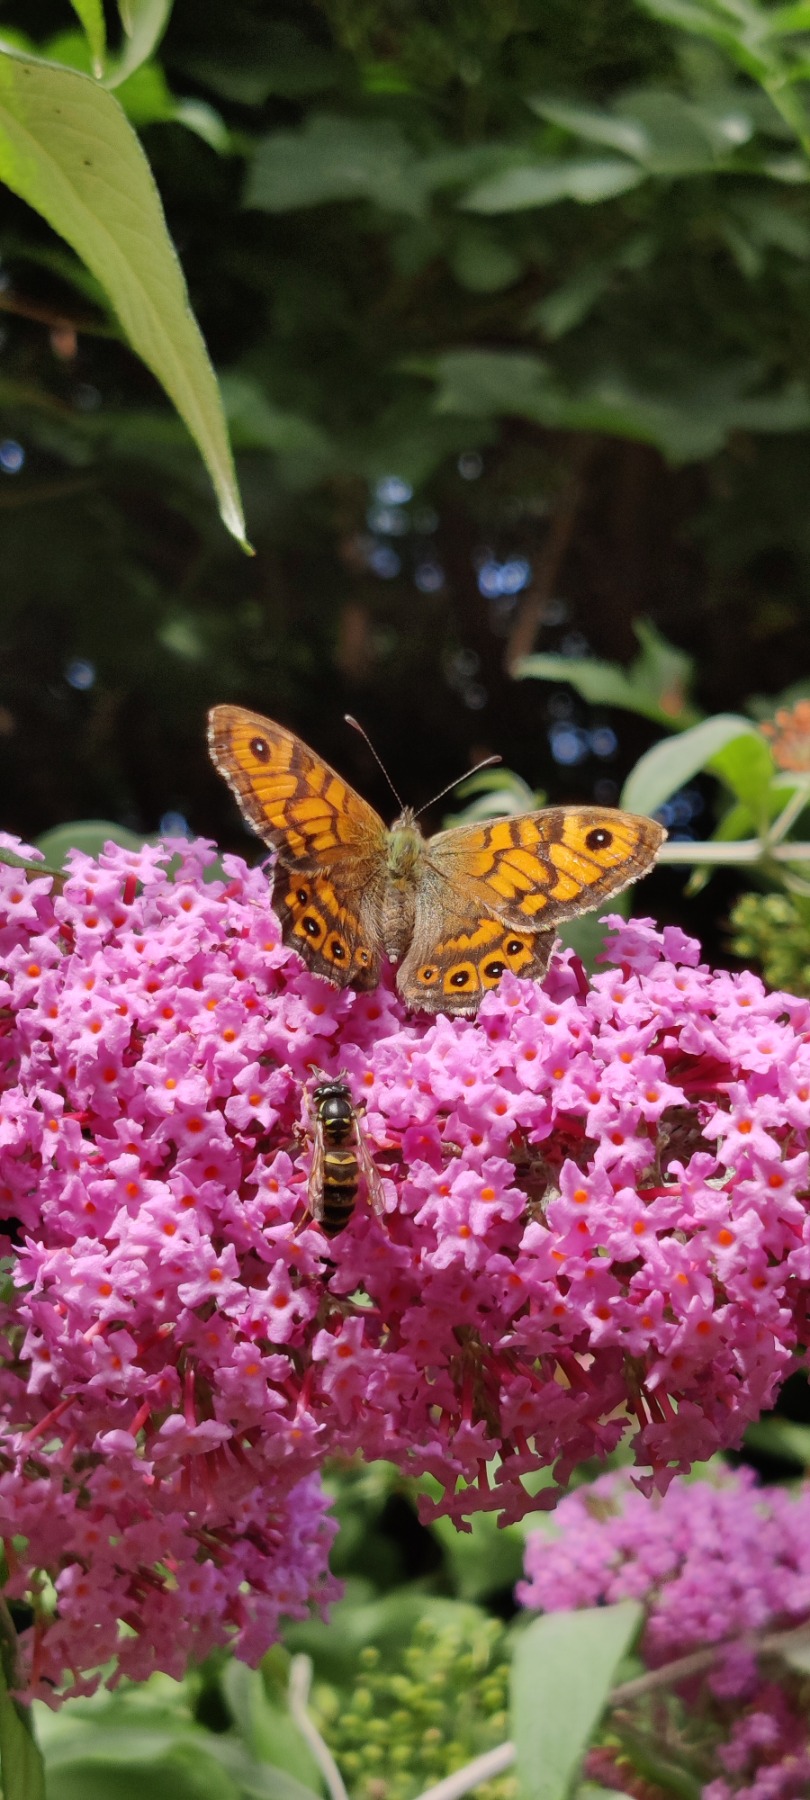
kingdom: Animalia
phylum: Arthropoda
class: Insecta
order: Lepidoptera
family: Nymphalidae
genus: Pararge
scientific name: Pararge Lasiommata megera
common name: Vejrandøje
